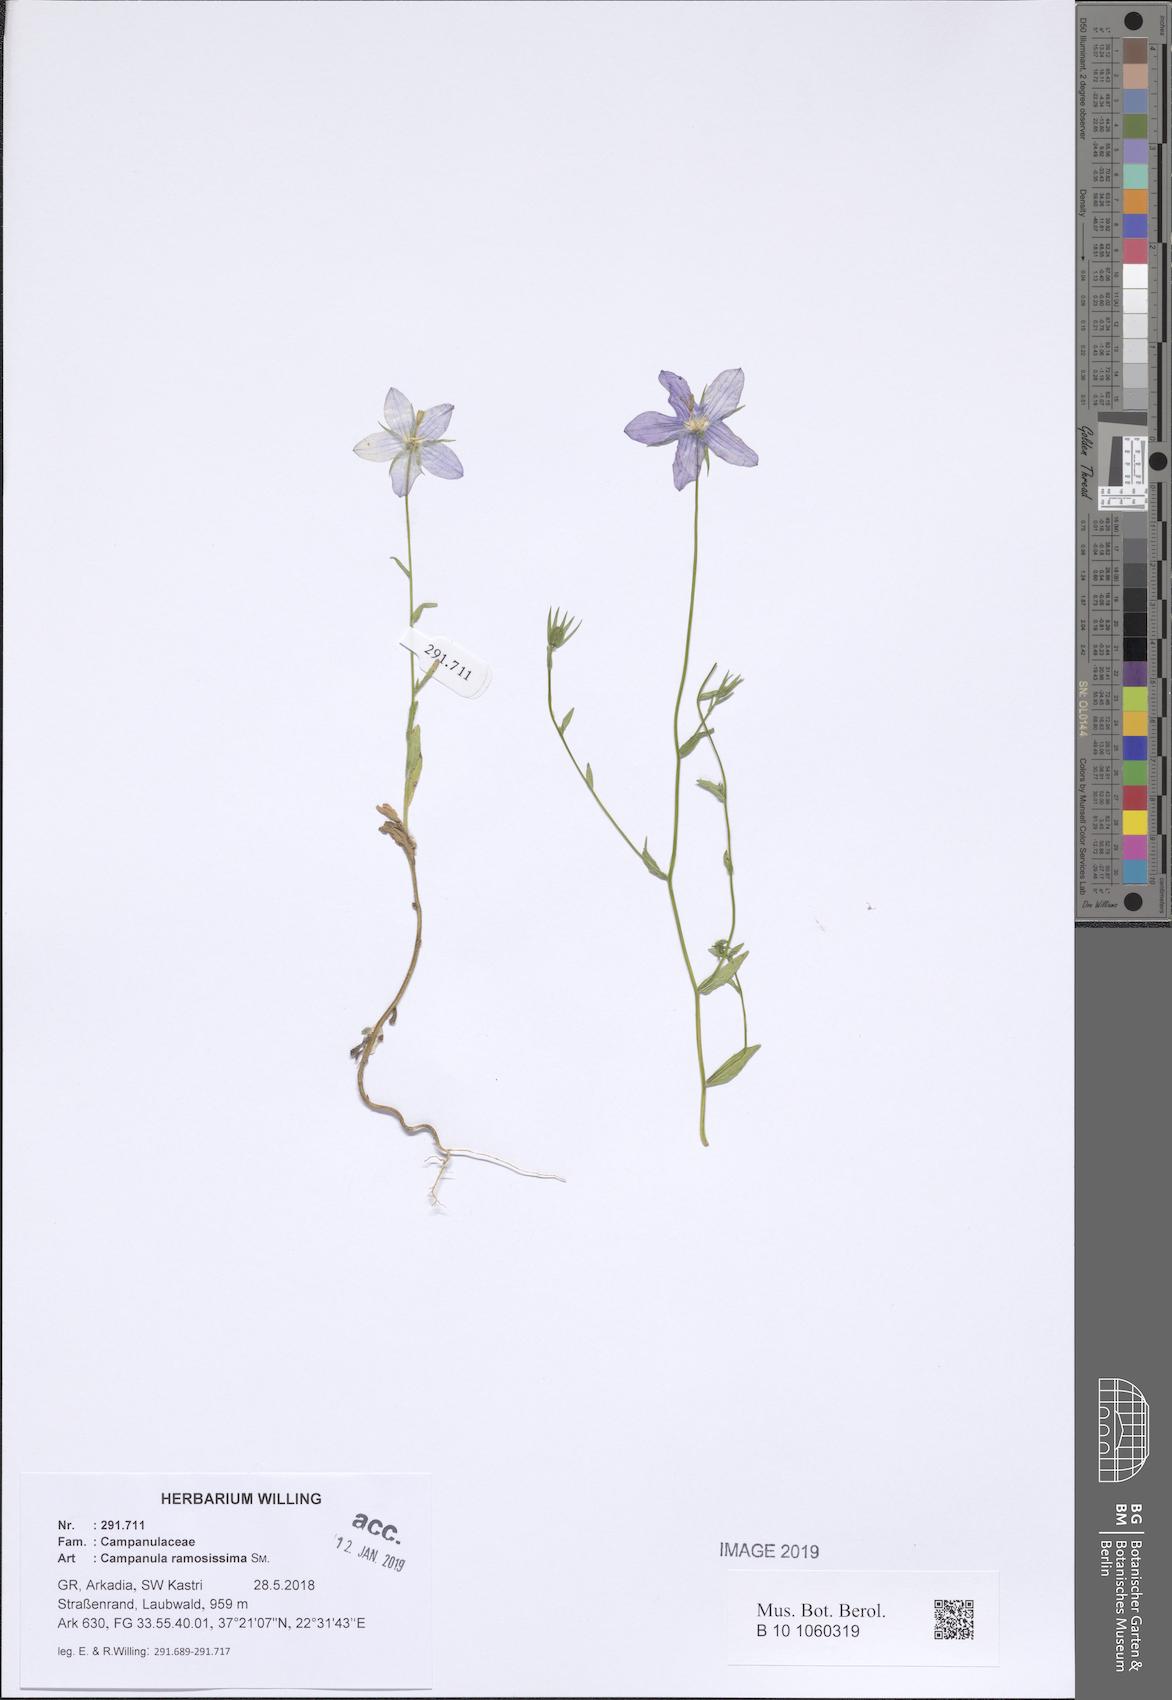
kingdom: Plantae
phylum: Tracheophyta
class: Magnoliopsida
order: Asterales
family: Campanulaceae
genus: Campanula
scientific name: Campanula ramosissima
